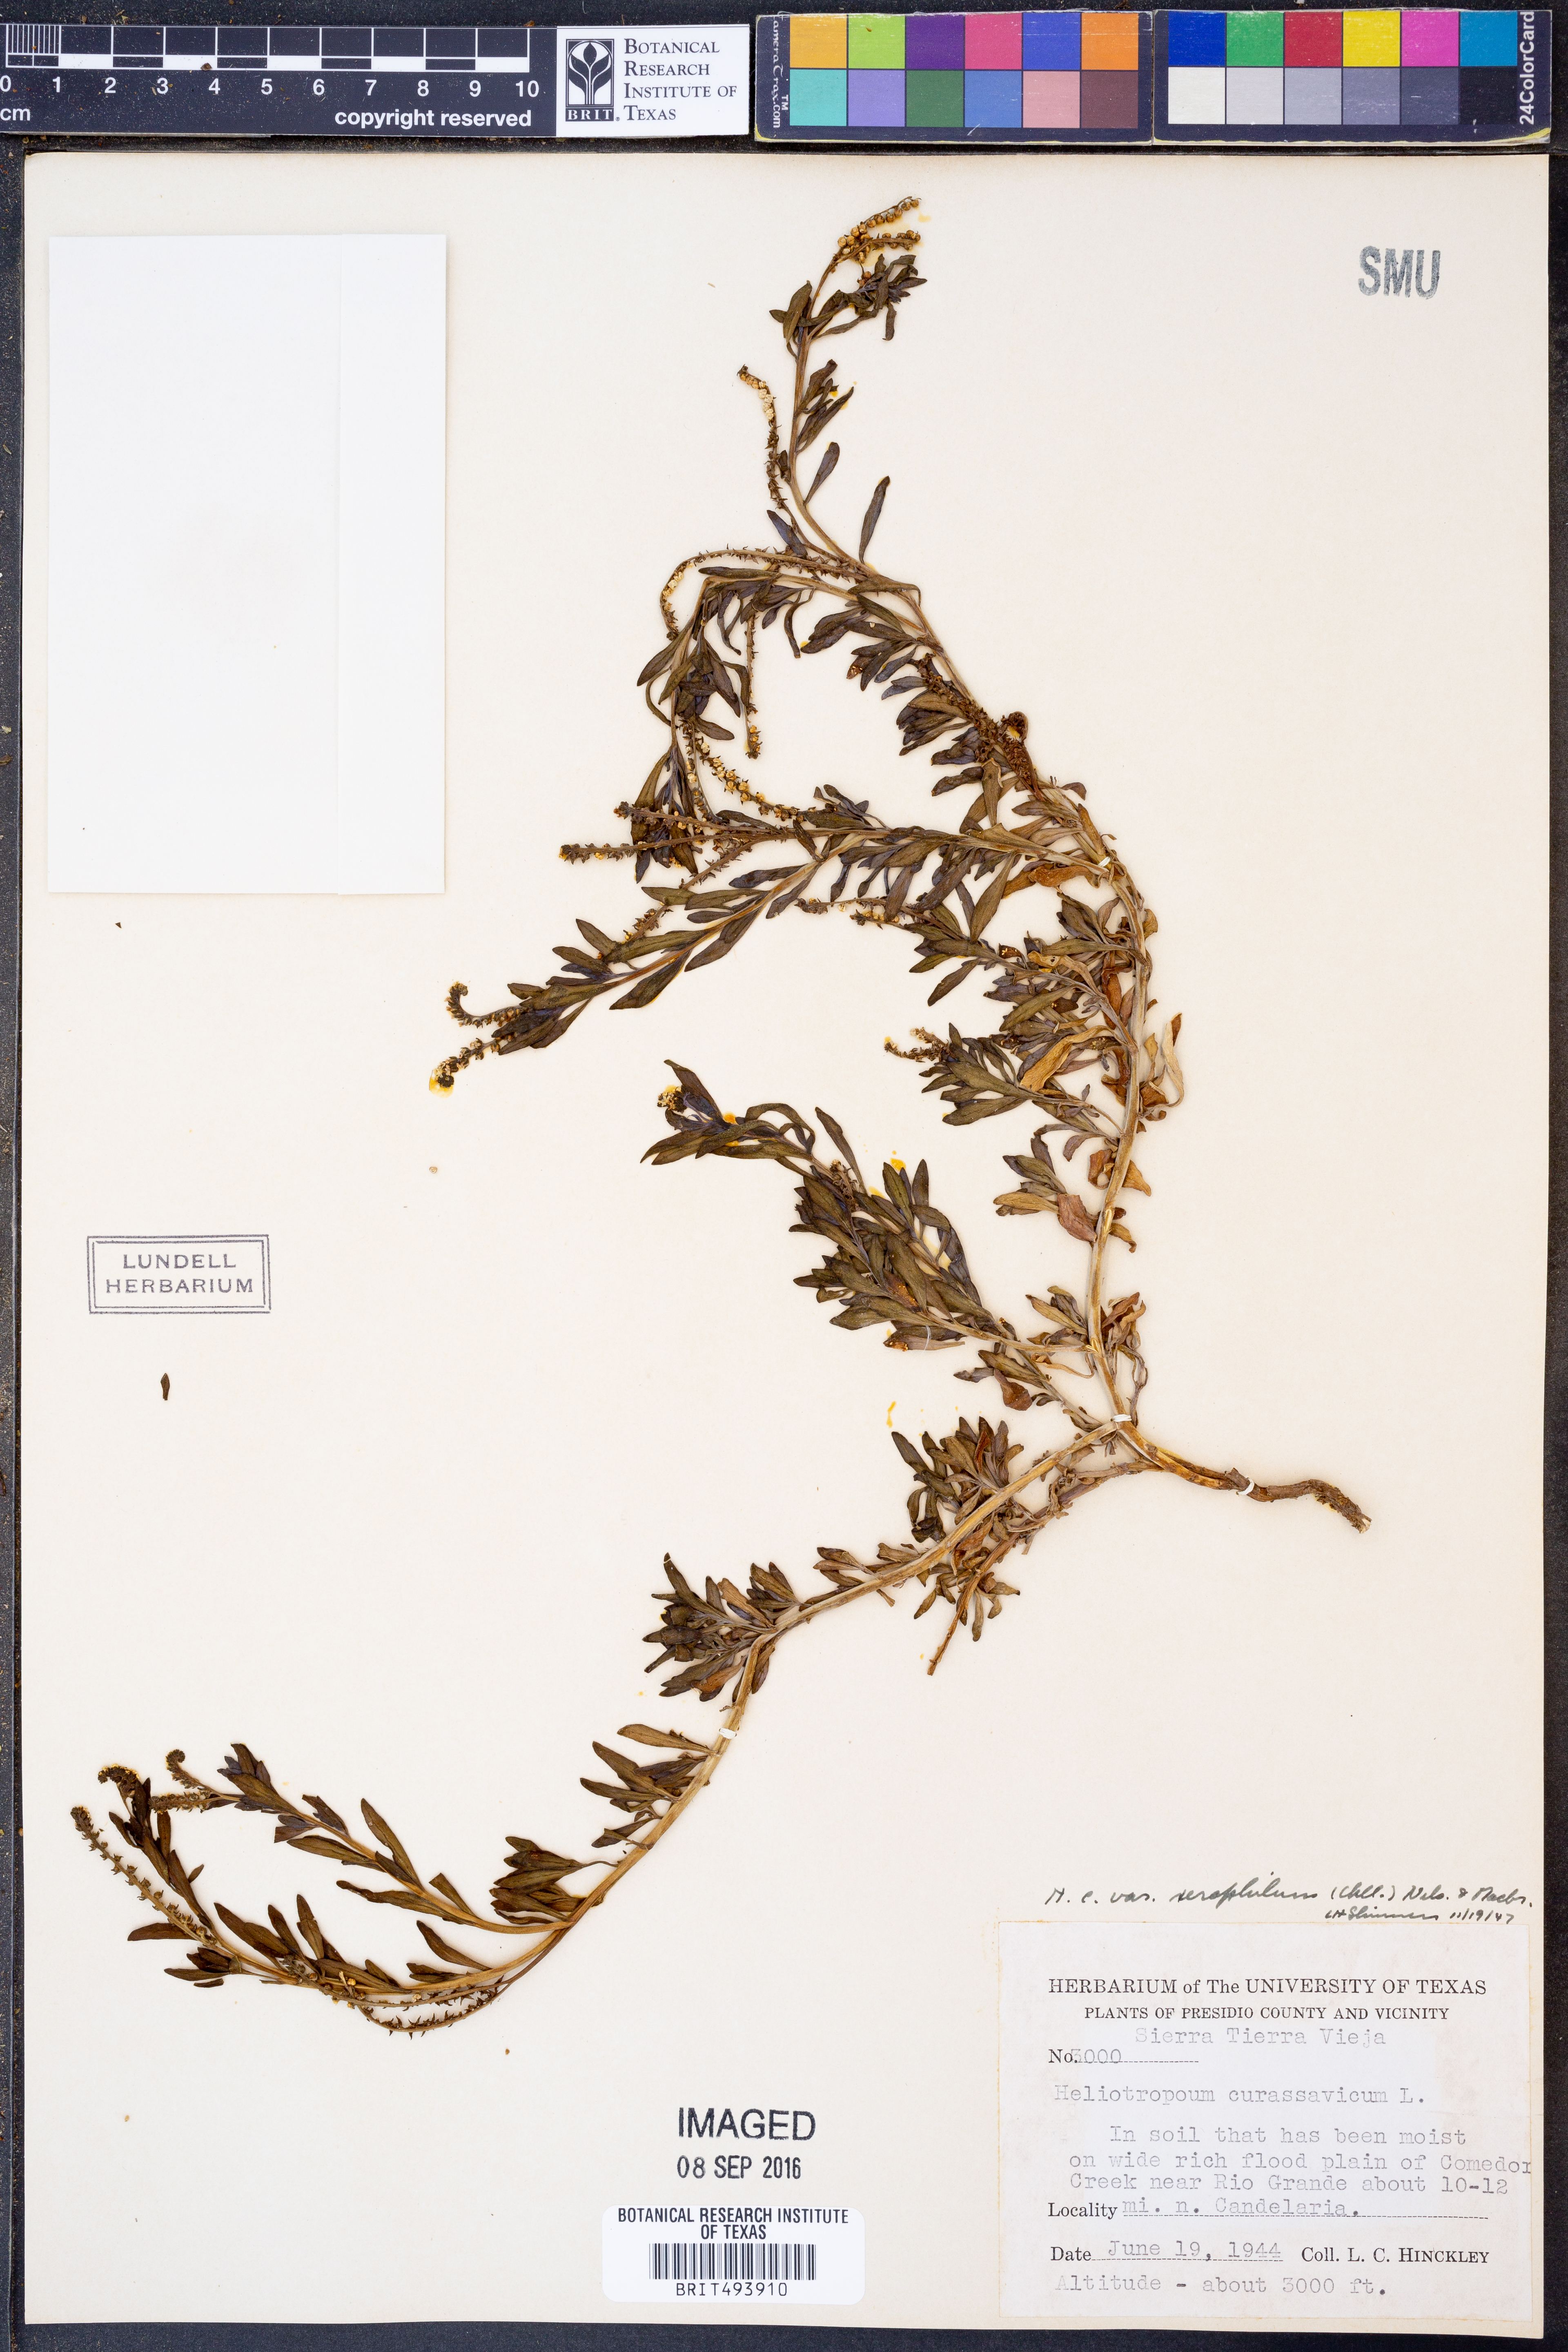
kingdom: Plantae
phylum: Tracheophyta
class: Magnoliopsida
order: Boraginales
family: Heliotropiaceae
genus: Heliotropium
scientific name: Heliotropium curassavicum
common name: Seaside heliotrope
